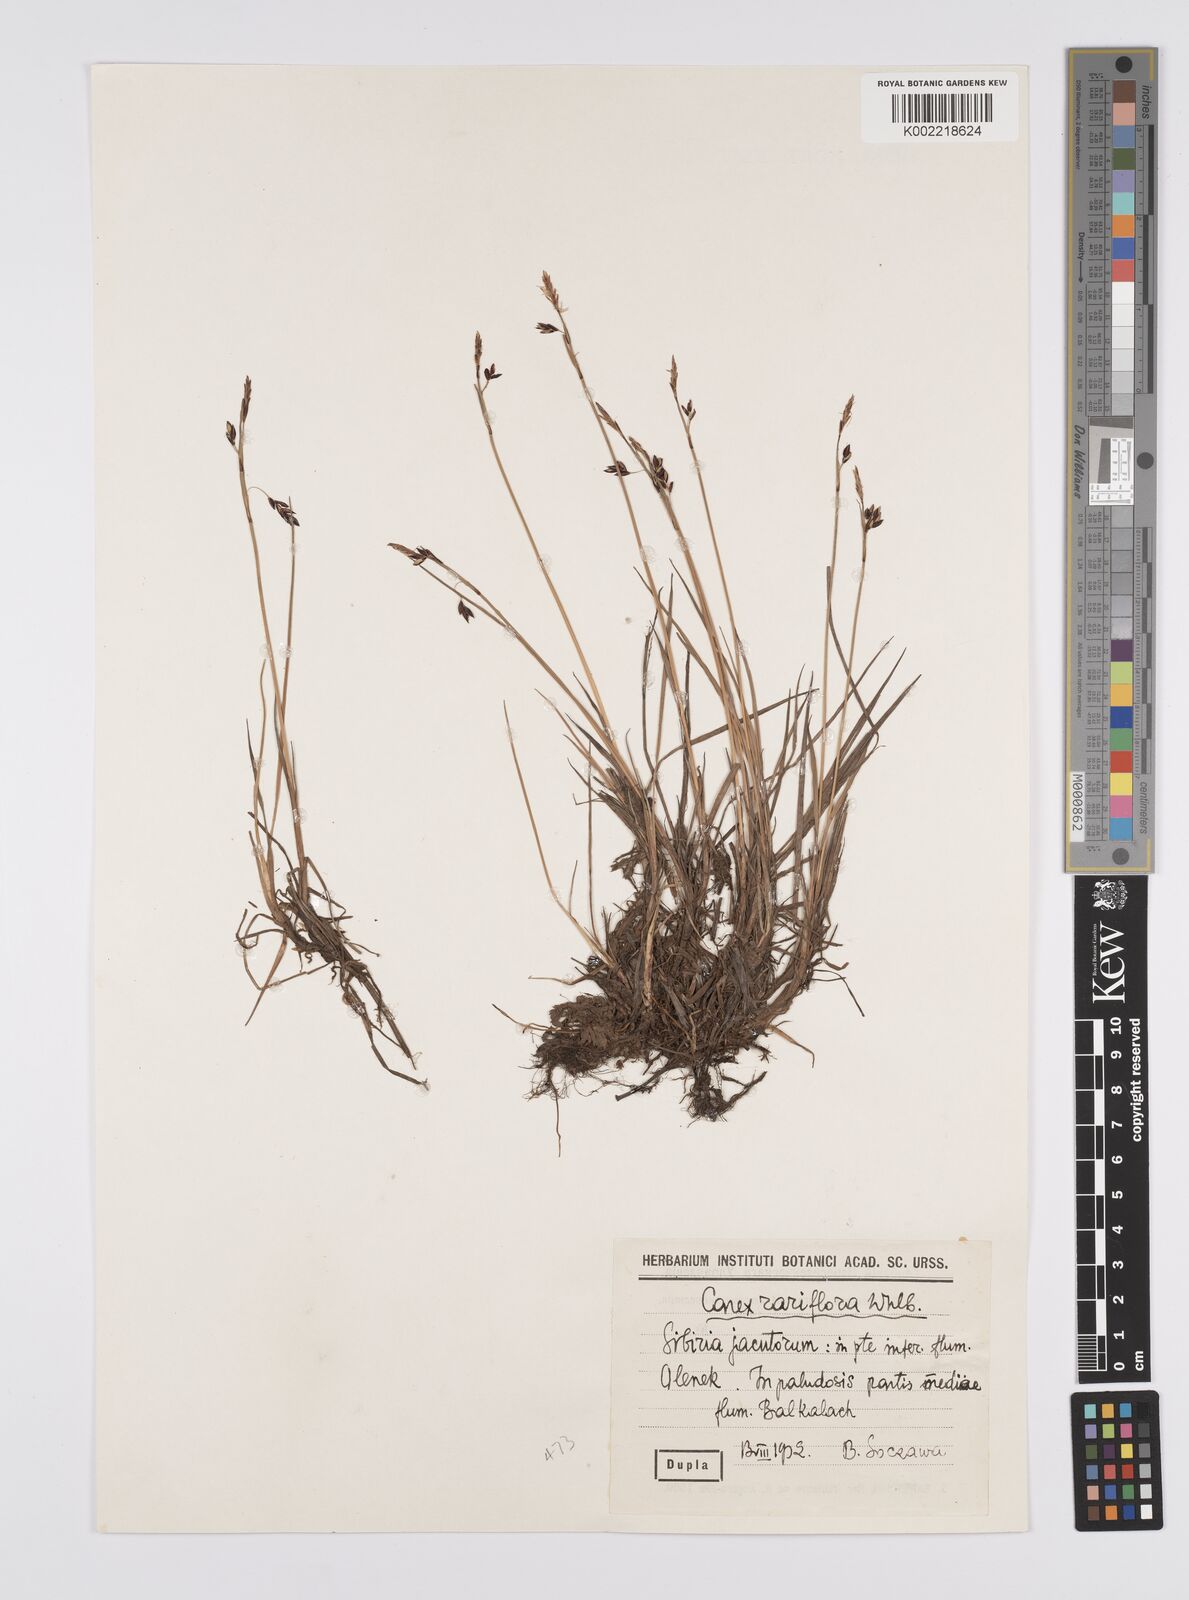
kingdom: Plantae
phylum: Tracheophyta
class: Liliopsida
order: Poales
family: Cyperaceae
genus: Carex
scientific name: Carex rariflora
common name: Loose-flowered alpine sedge
